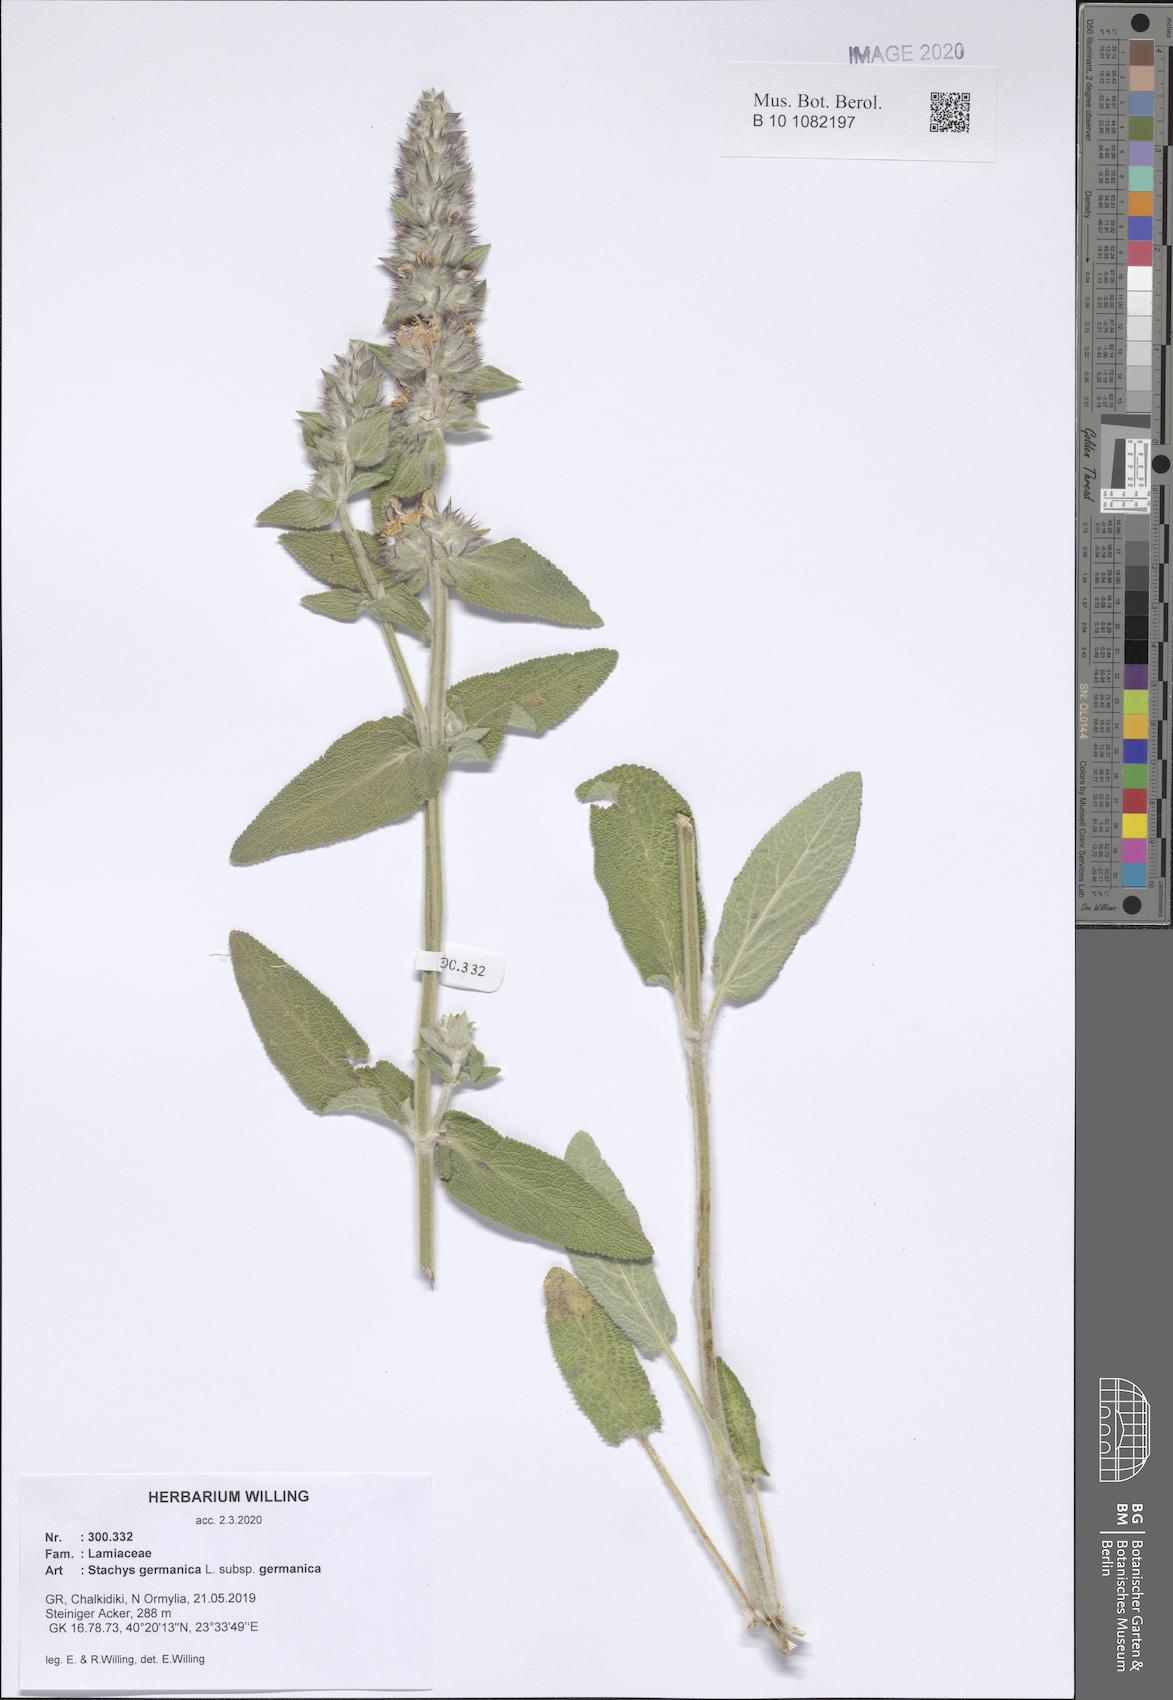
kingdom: Plantae
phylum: Tracheophyta
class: Magnoliopsida
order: Lamiales
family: Lamiaceae
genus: Stachys
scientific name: Stachys germanica
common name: Downy woundwort
